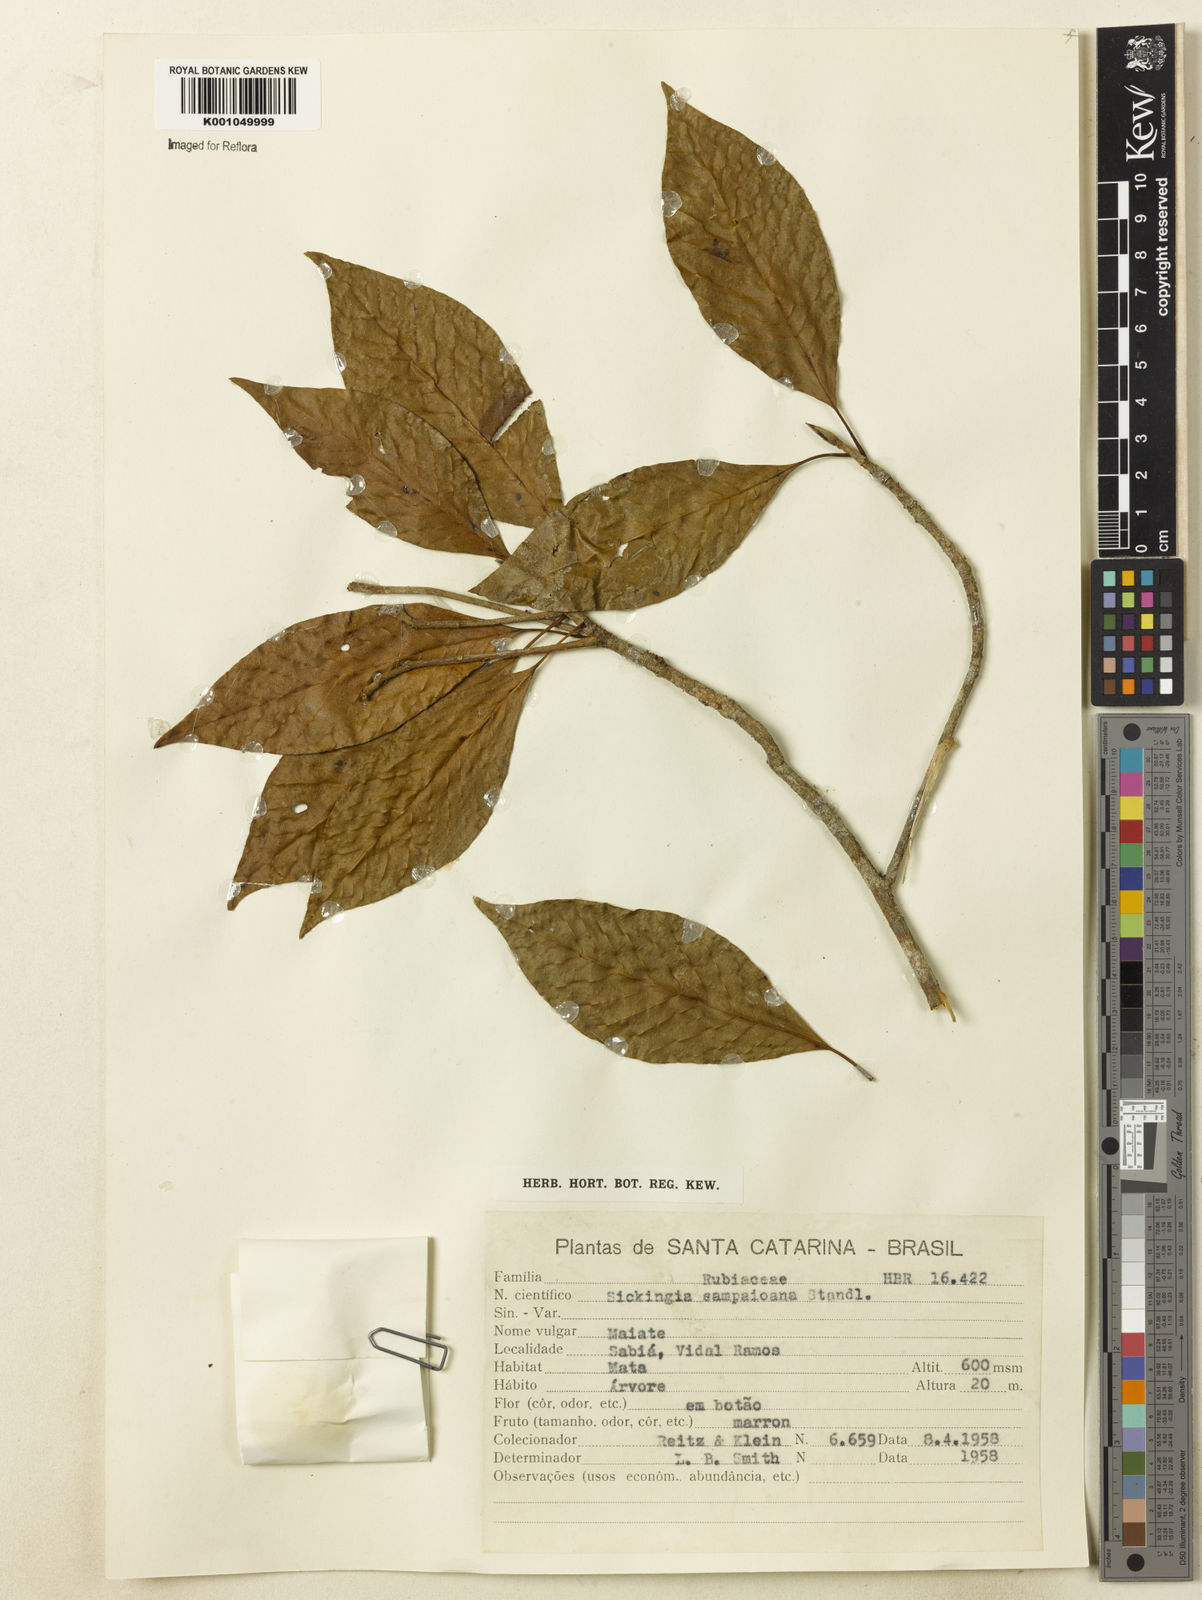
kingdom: Plantae
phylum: Tracheophyta
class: Magnoliopsida
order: Gentianales
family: Rubiaceae
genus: Simira
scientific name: Simira sampaioana
